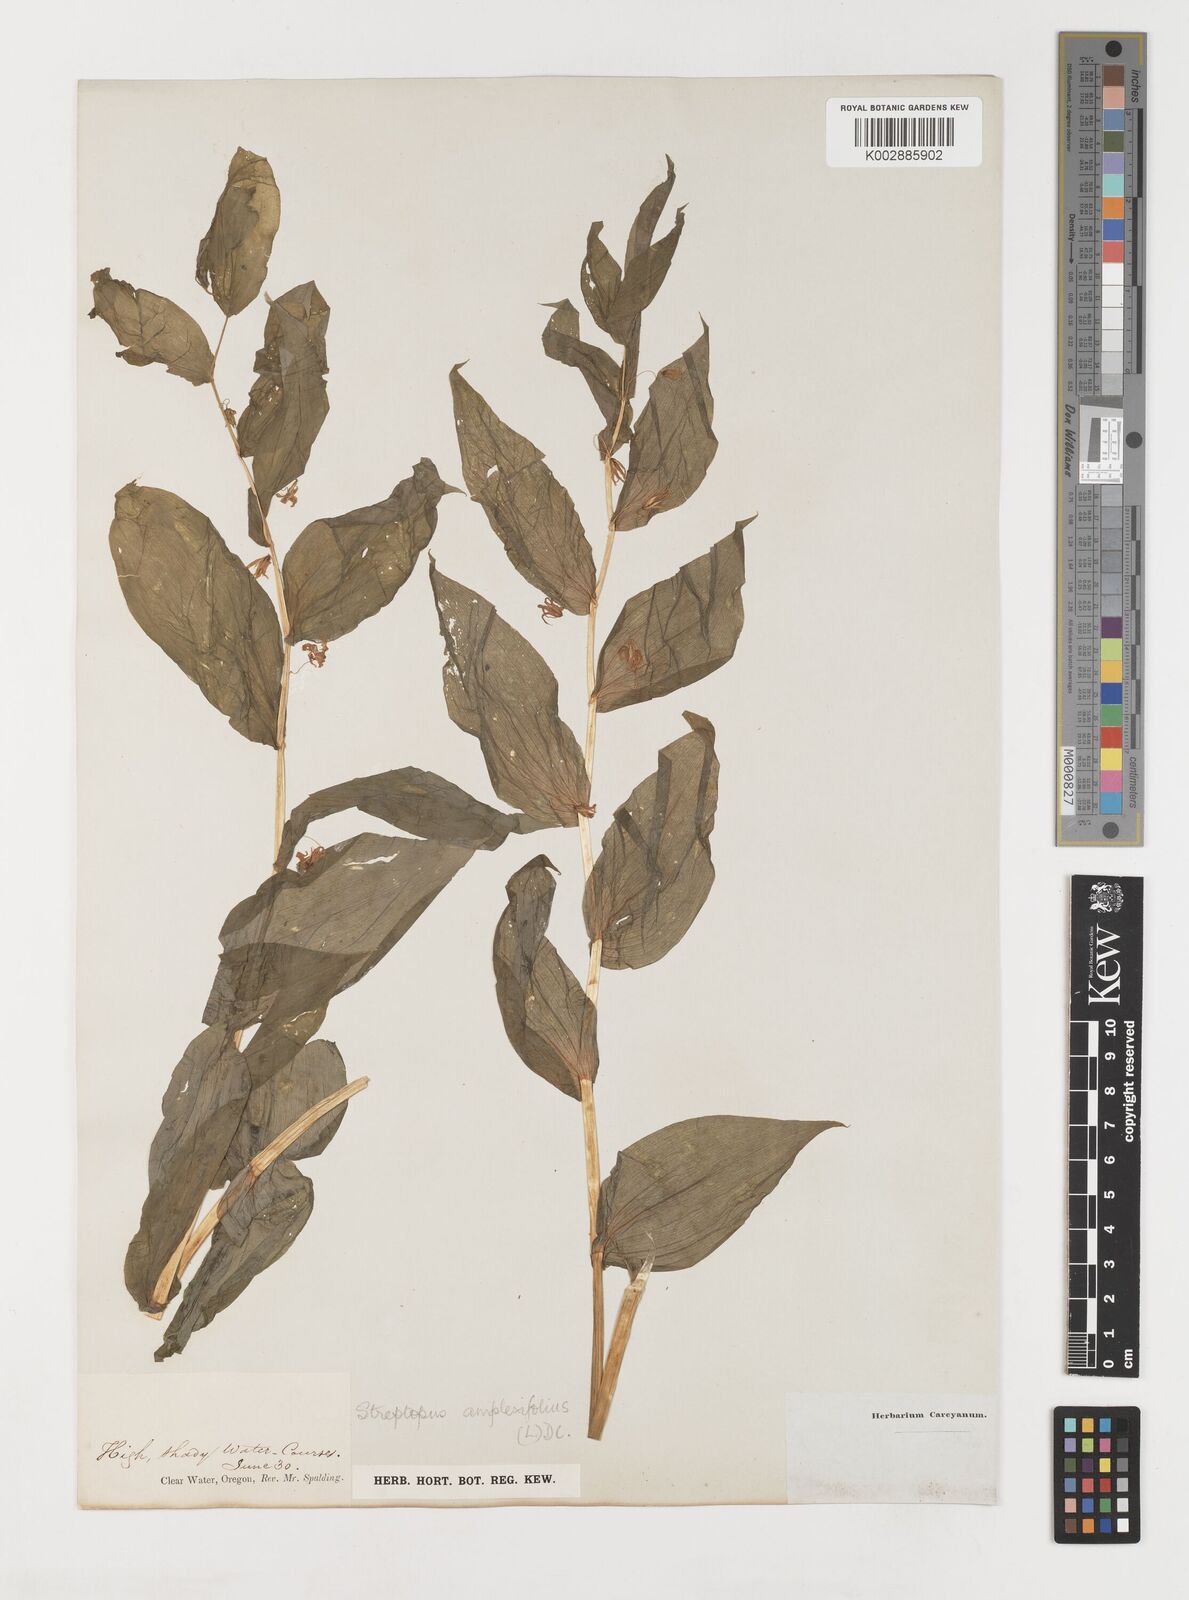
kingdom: Plantae
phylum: Tracheophyta
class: Liliopsida
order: Liliales
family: Liliaceae
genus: Streptopus
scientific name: Streptopus amplexifolius
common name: Clasp twisted stalk
